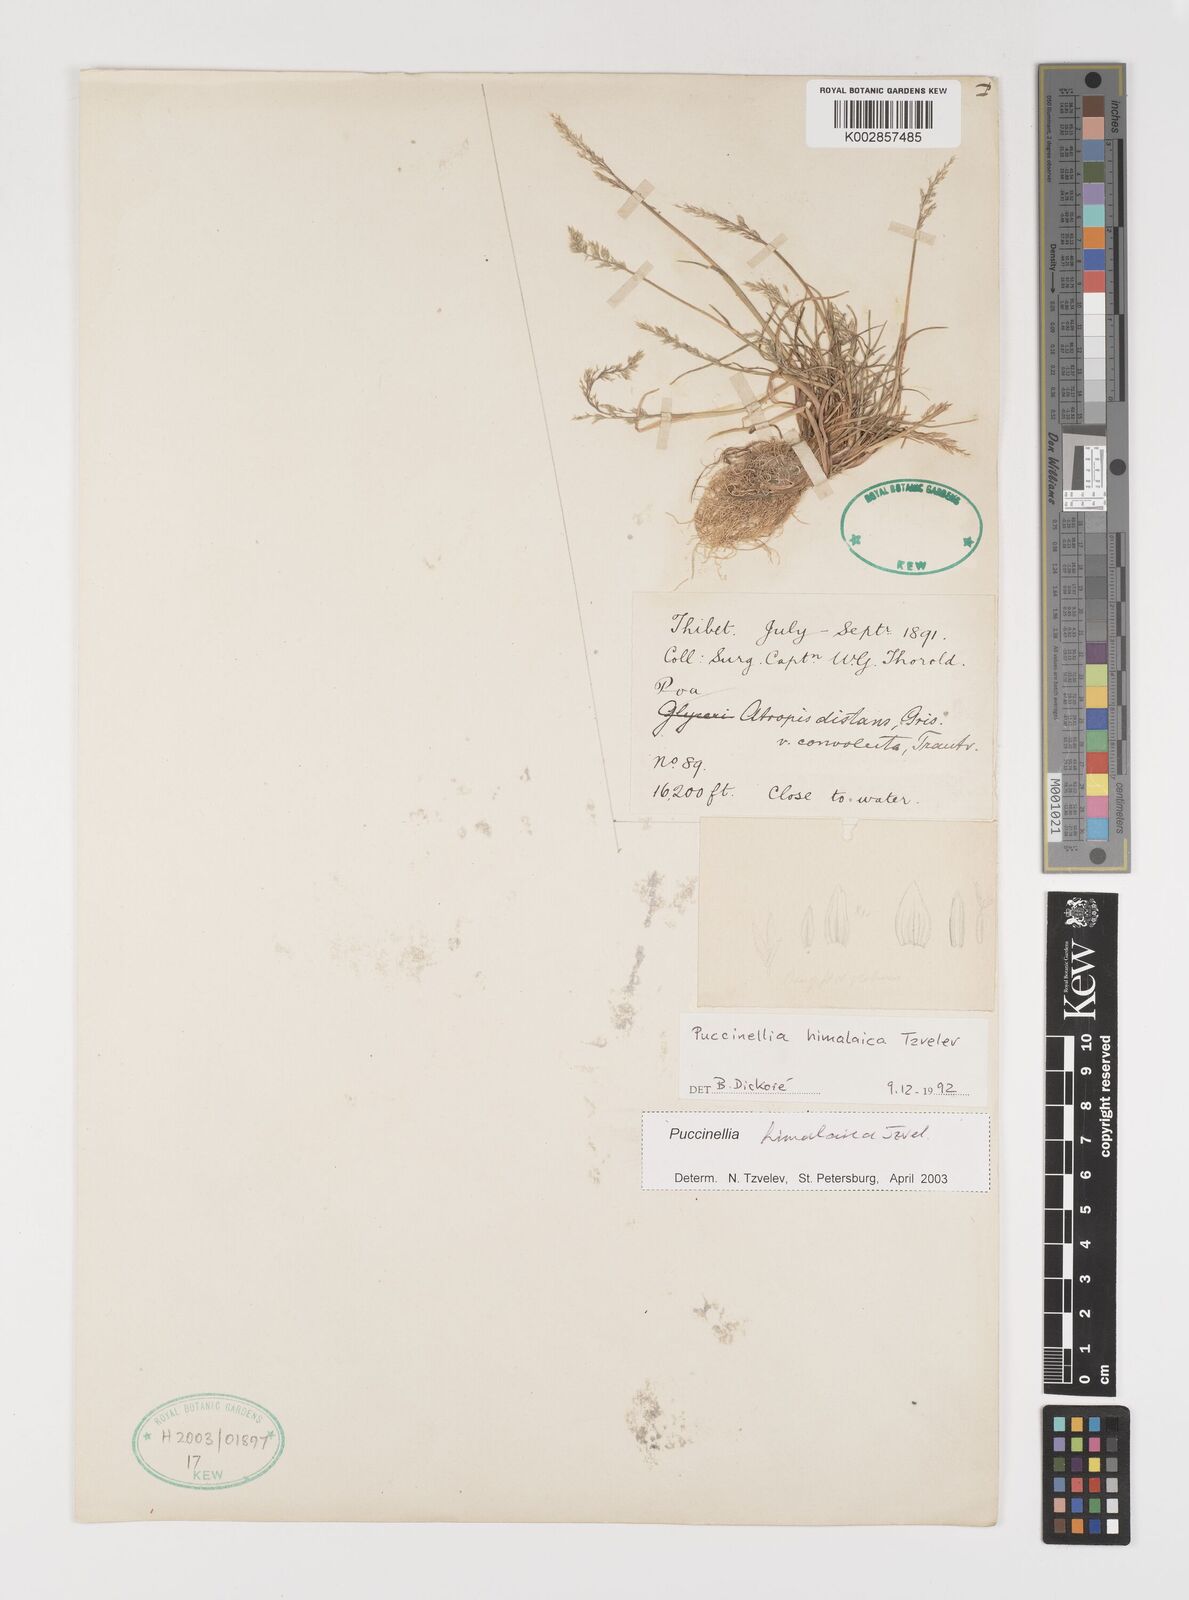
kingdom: Plantae
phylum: Tracheophyta
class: Liliopsida
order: Poales
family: Poaceae
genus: Puccinellia
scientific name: Puccinellia himalaica
